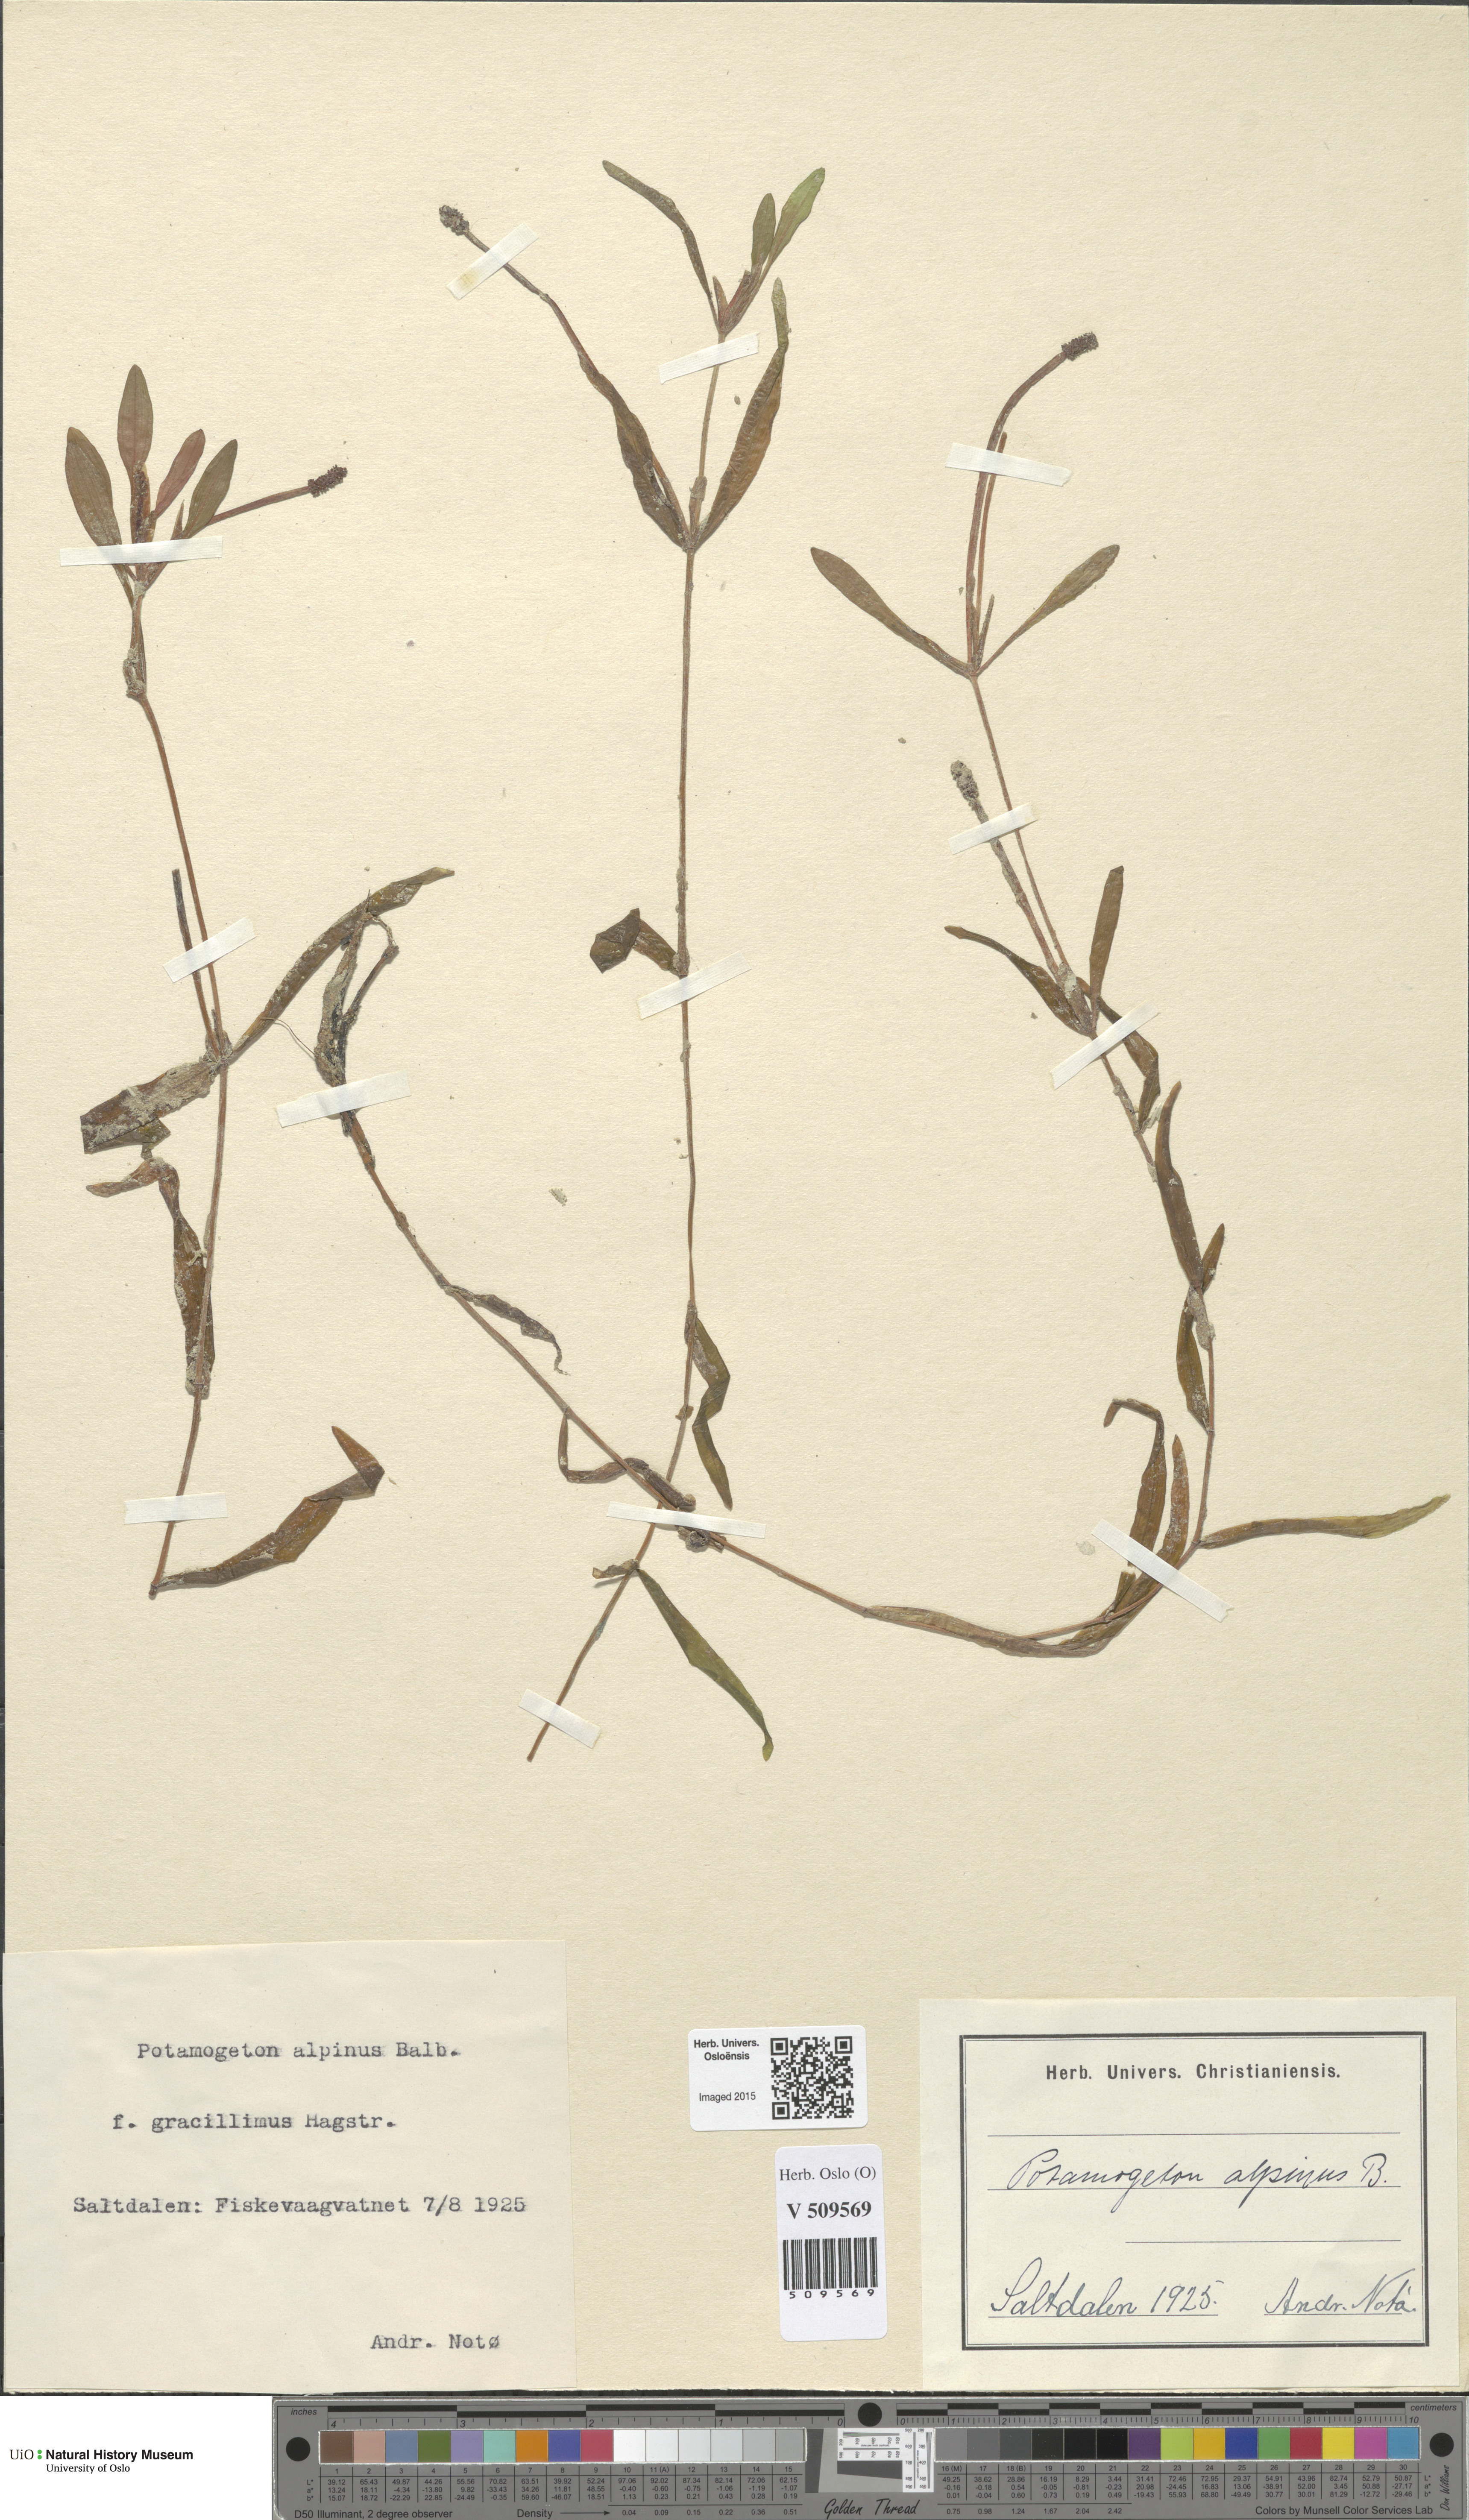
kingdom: Plantae
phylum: Tracheophyta
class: Liliopsida
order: Alismatales
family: Potamogetonaceae
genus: Potamogeton
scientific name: Potamogeton alpinus
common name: Red pondweed
